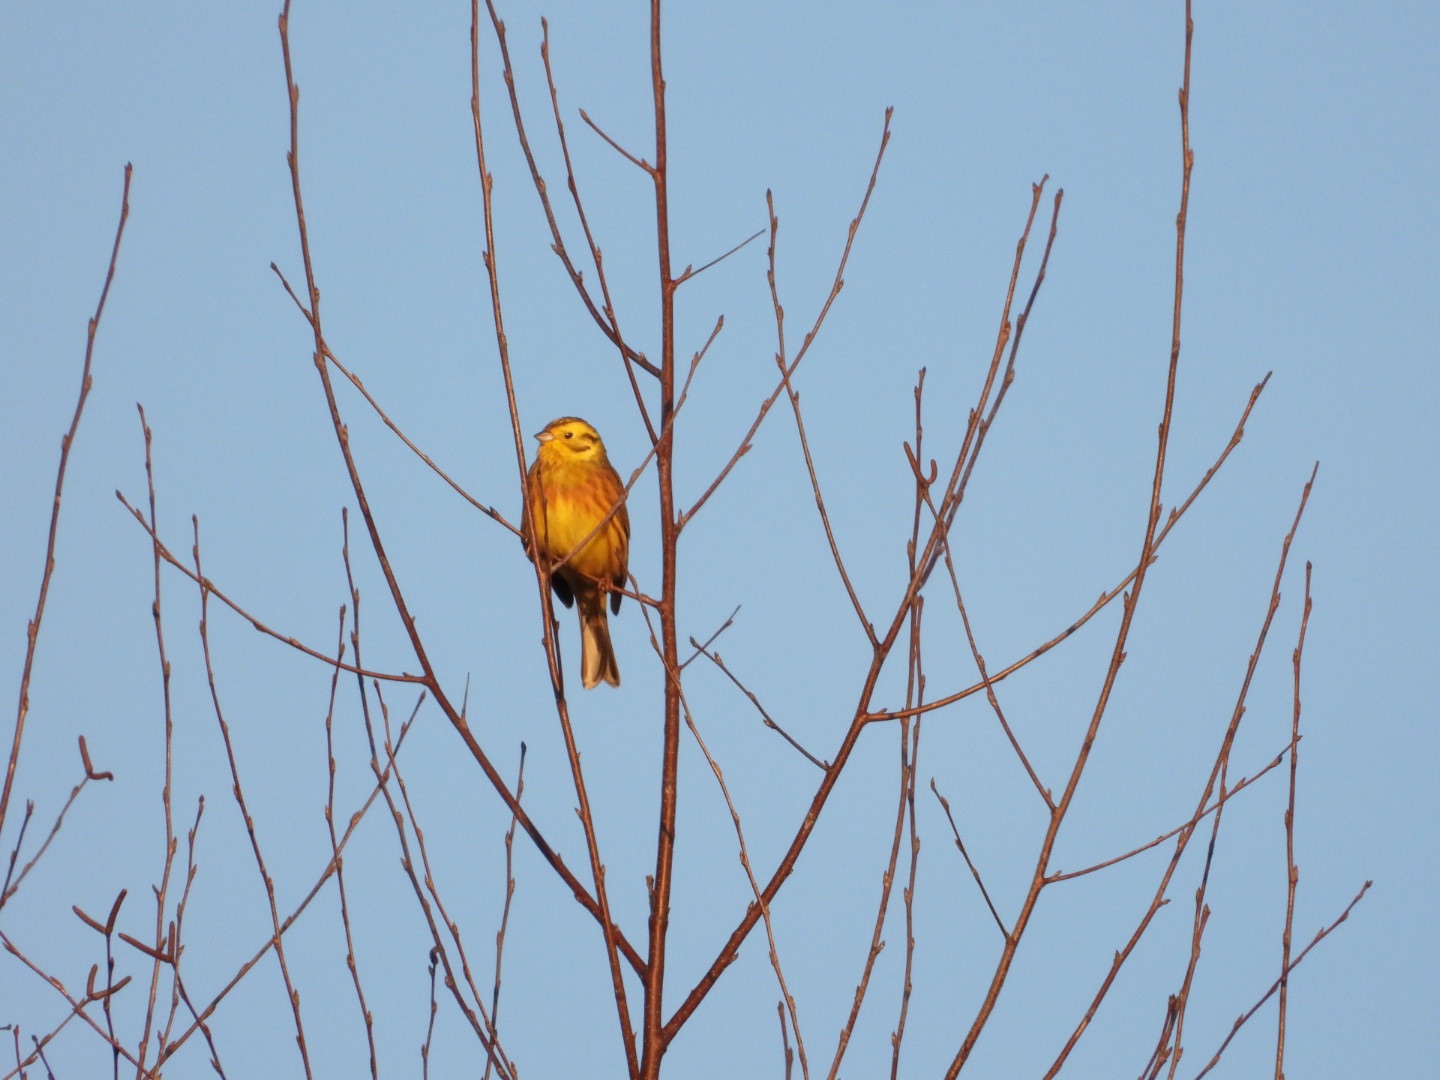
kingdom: Animalia
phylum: Chordata
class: Aves
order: Passeriformes
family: Emberizidae
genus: Emberiza
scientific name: Emberiza citrinella
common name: Gulspurv
